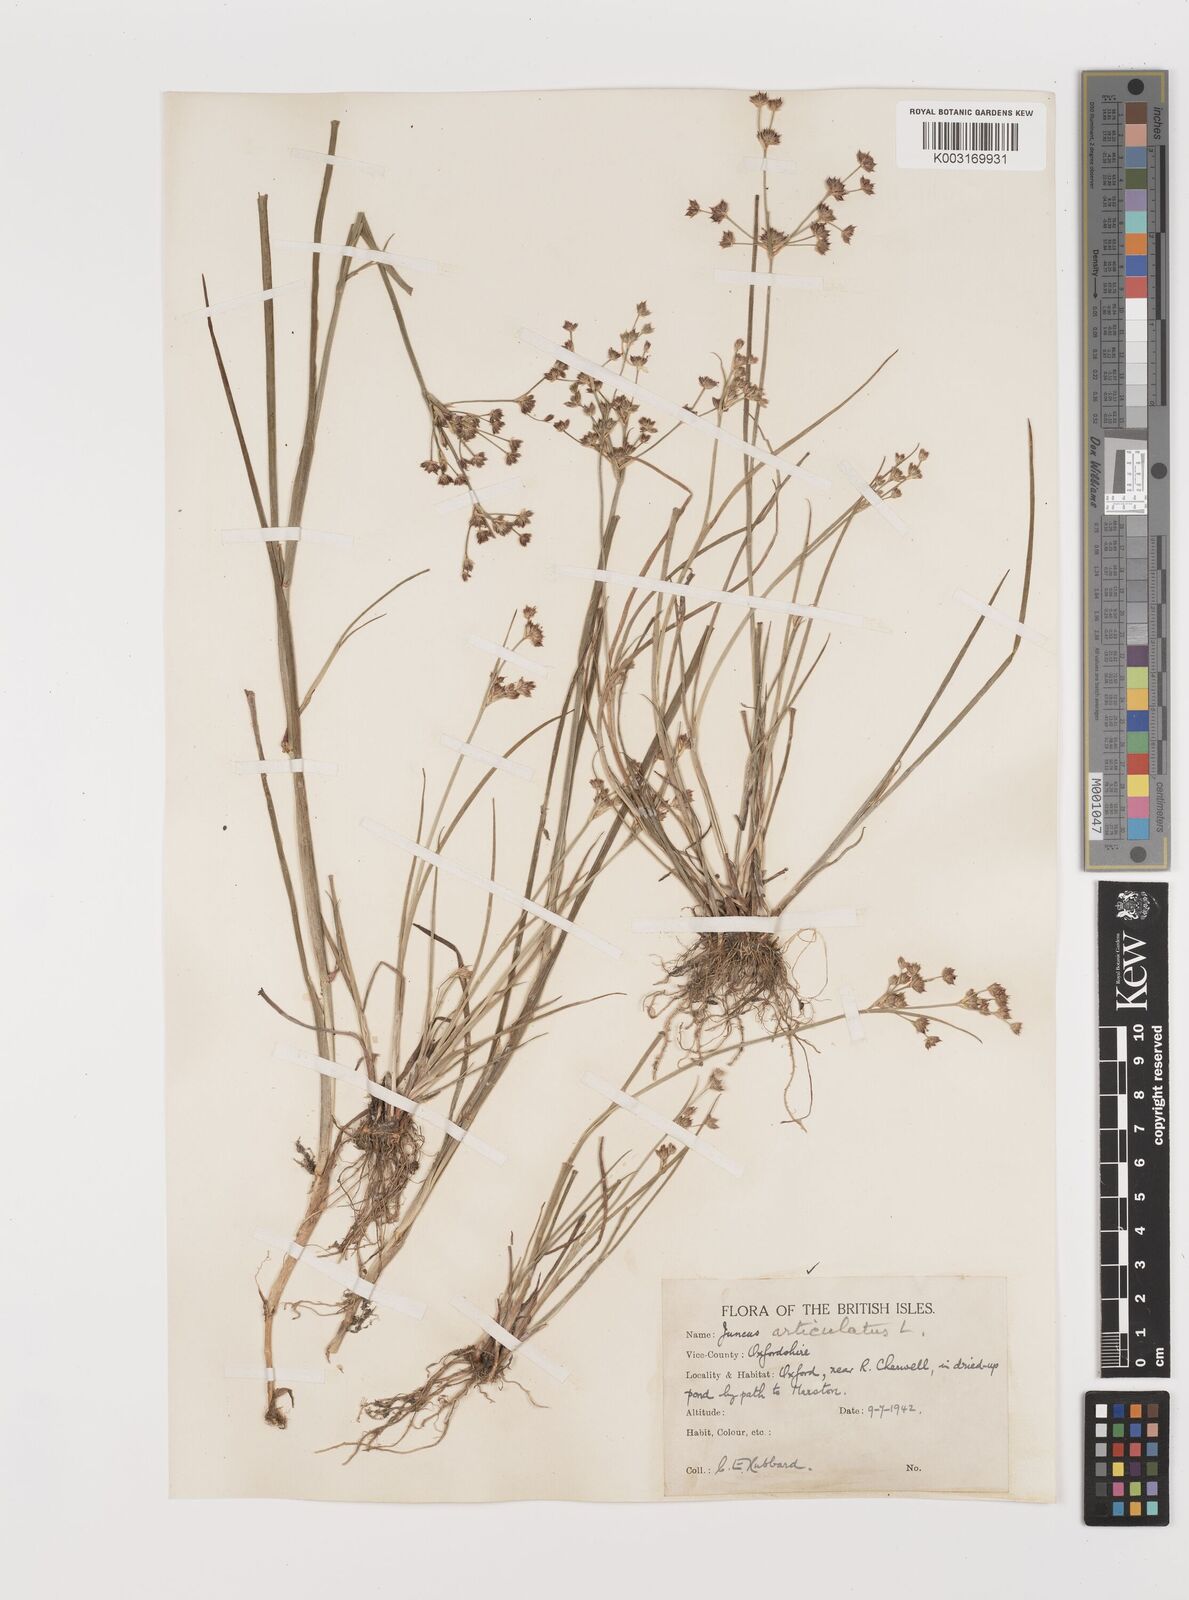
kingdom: Plantae
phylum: Tracheophyta
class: Liliopsida
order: Poales
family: Juncaceae
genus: Juncus
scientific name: Juncus articulatus
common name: Jointed rush
